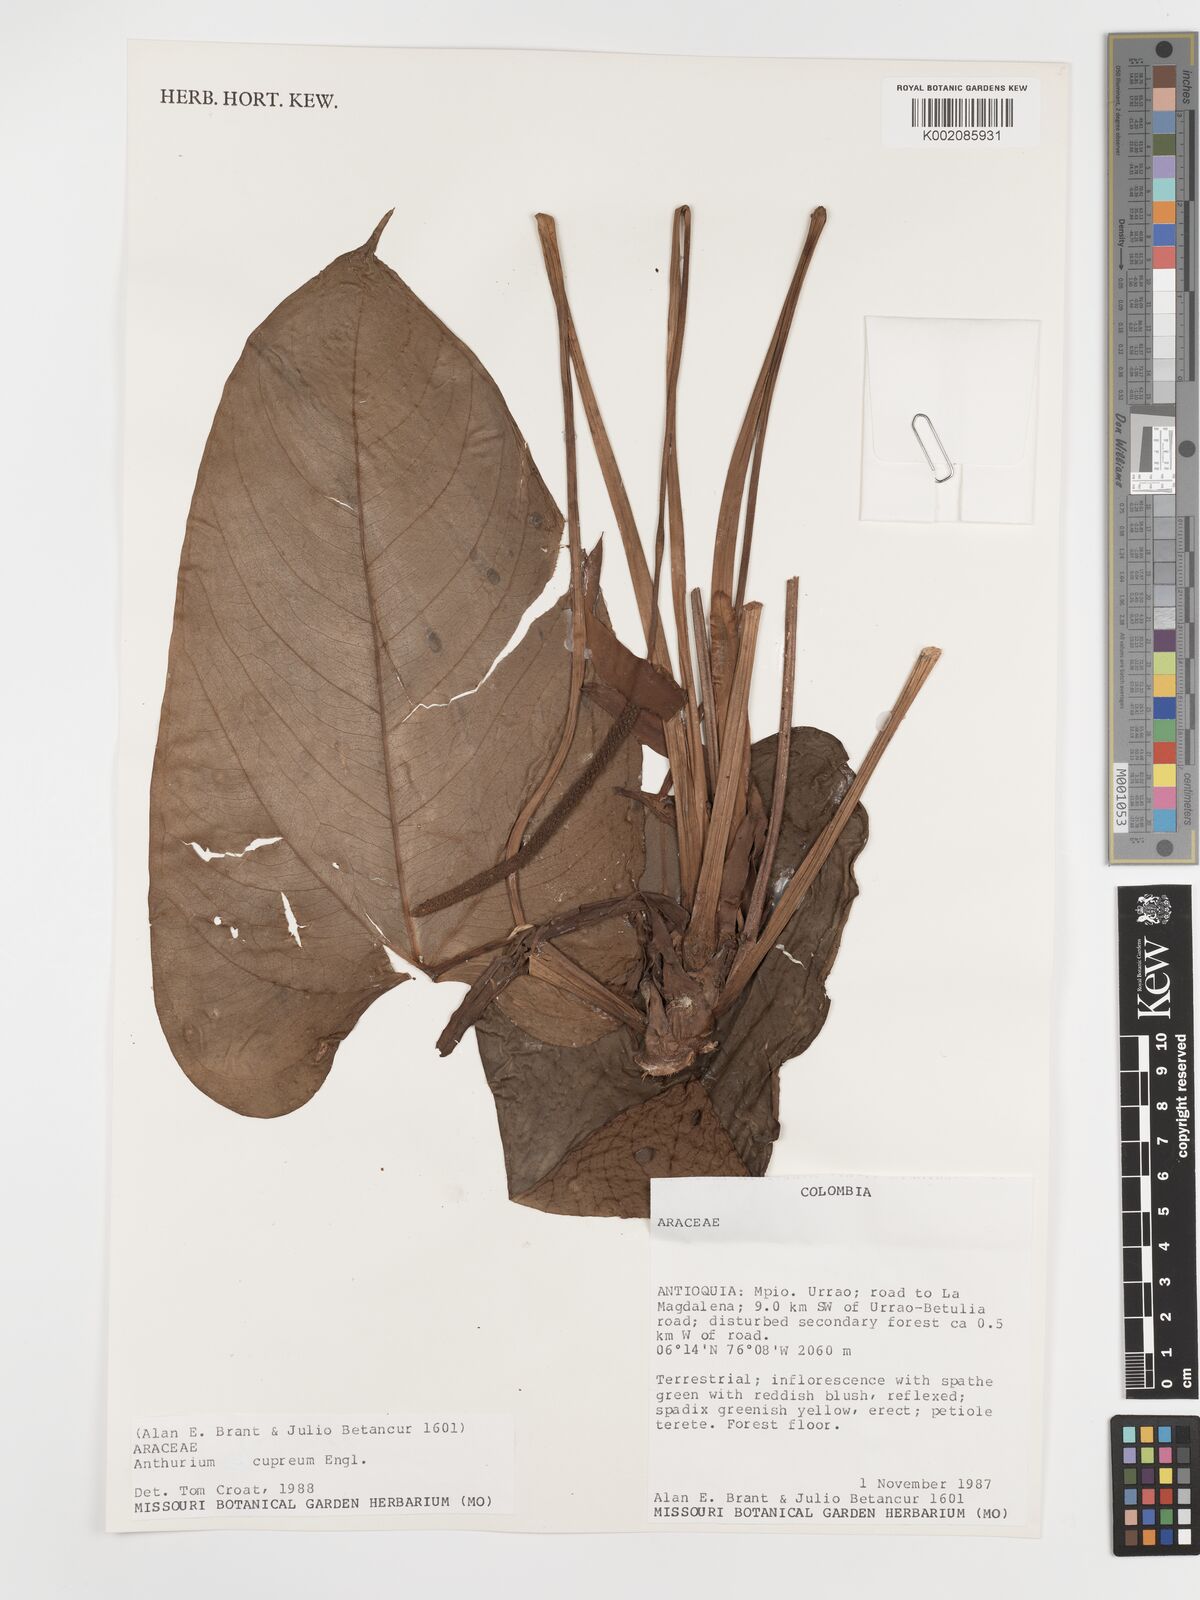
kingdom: Plantae
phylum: Tracheophyta
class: Liliopsida
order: Alismatales
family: Araceae
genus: Anthurium
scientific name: Anthurium cupreum
